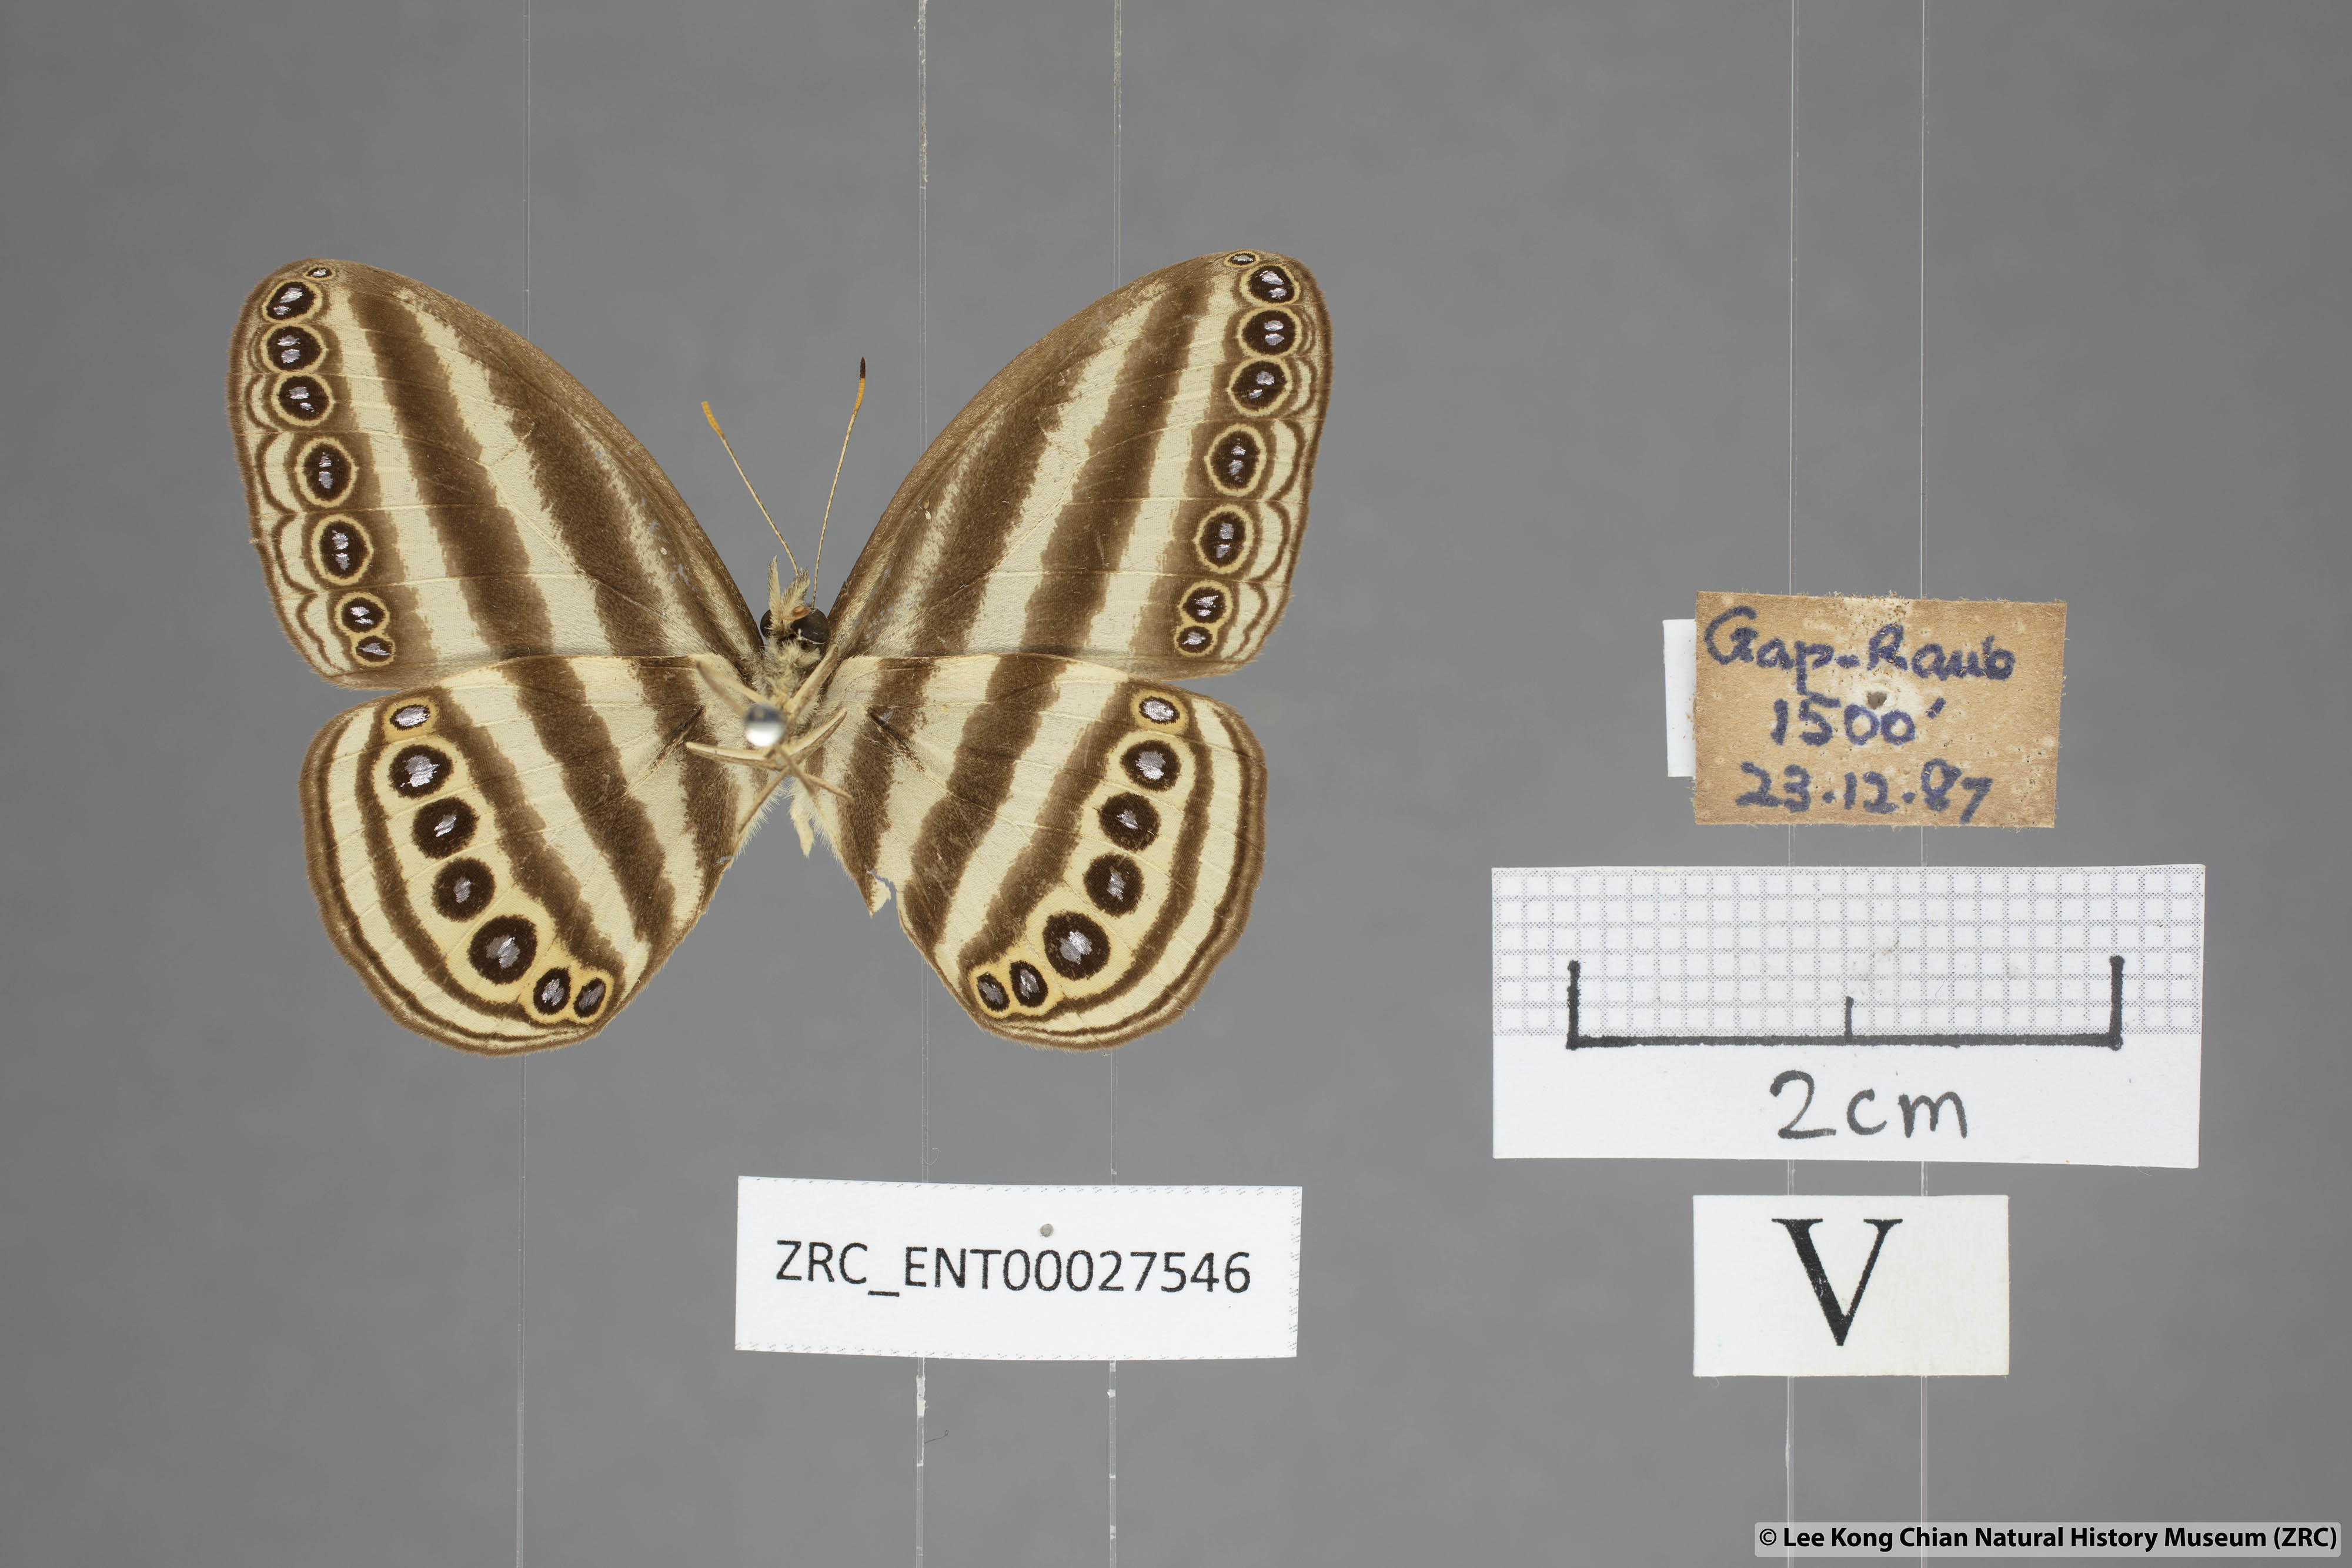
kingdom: Animalia
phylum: Arthropoda
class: Insecta
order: Lepidoptera
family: Nymphalidae
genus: Ragadia
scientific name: Ragadia makata
